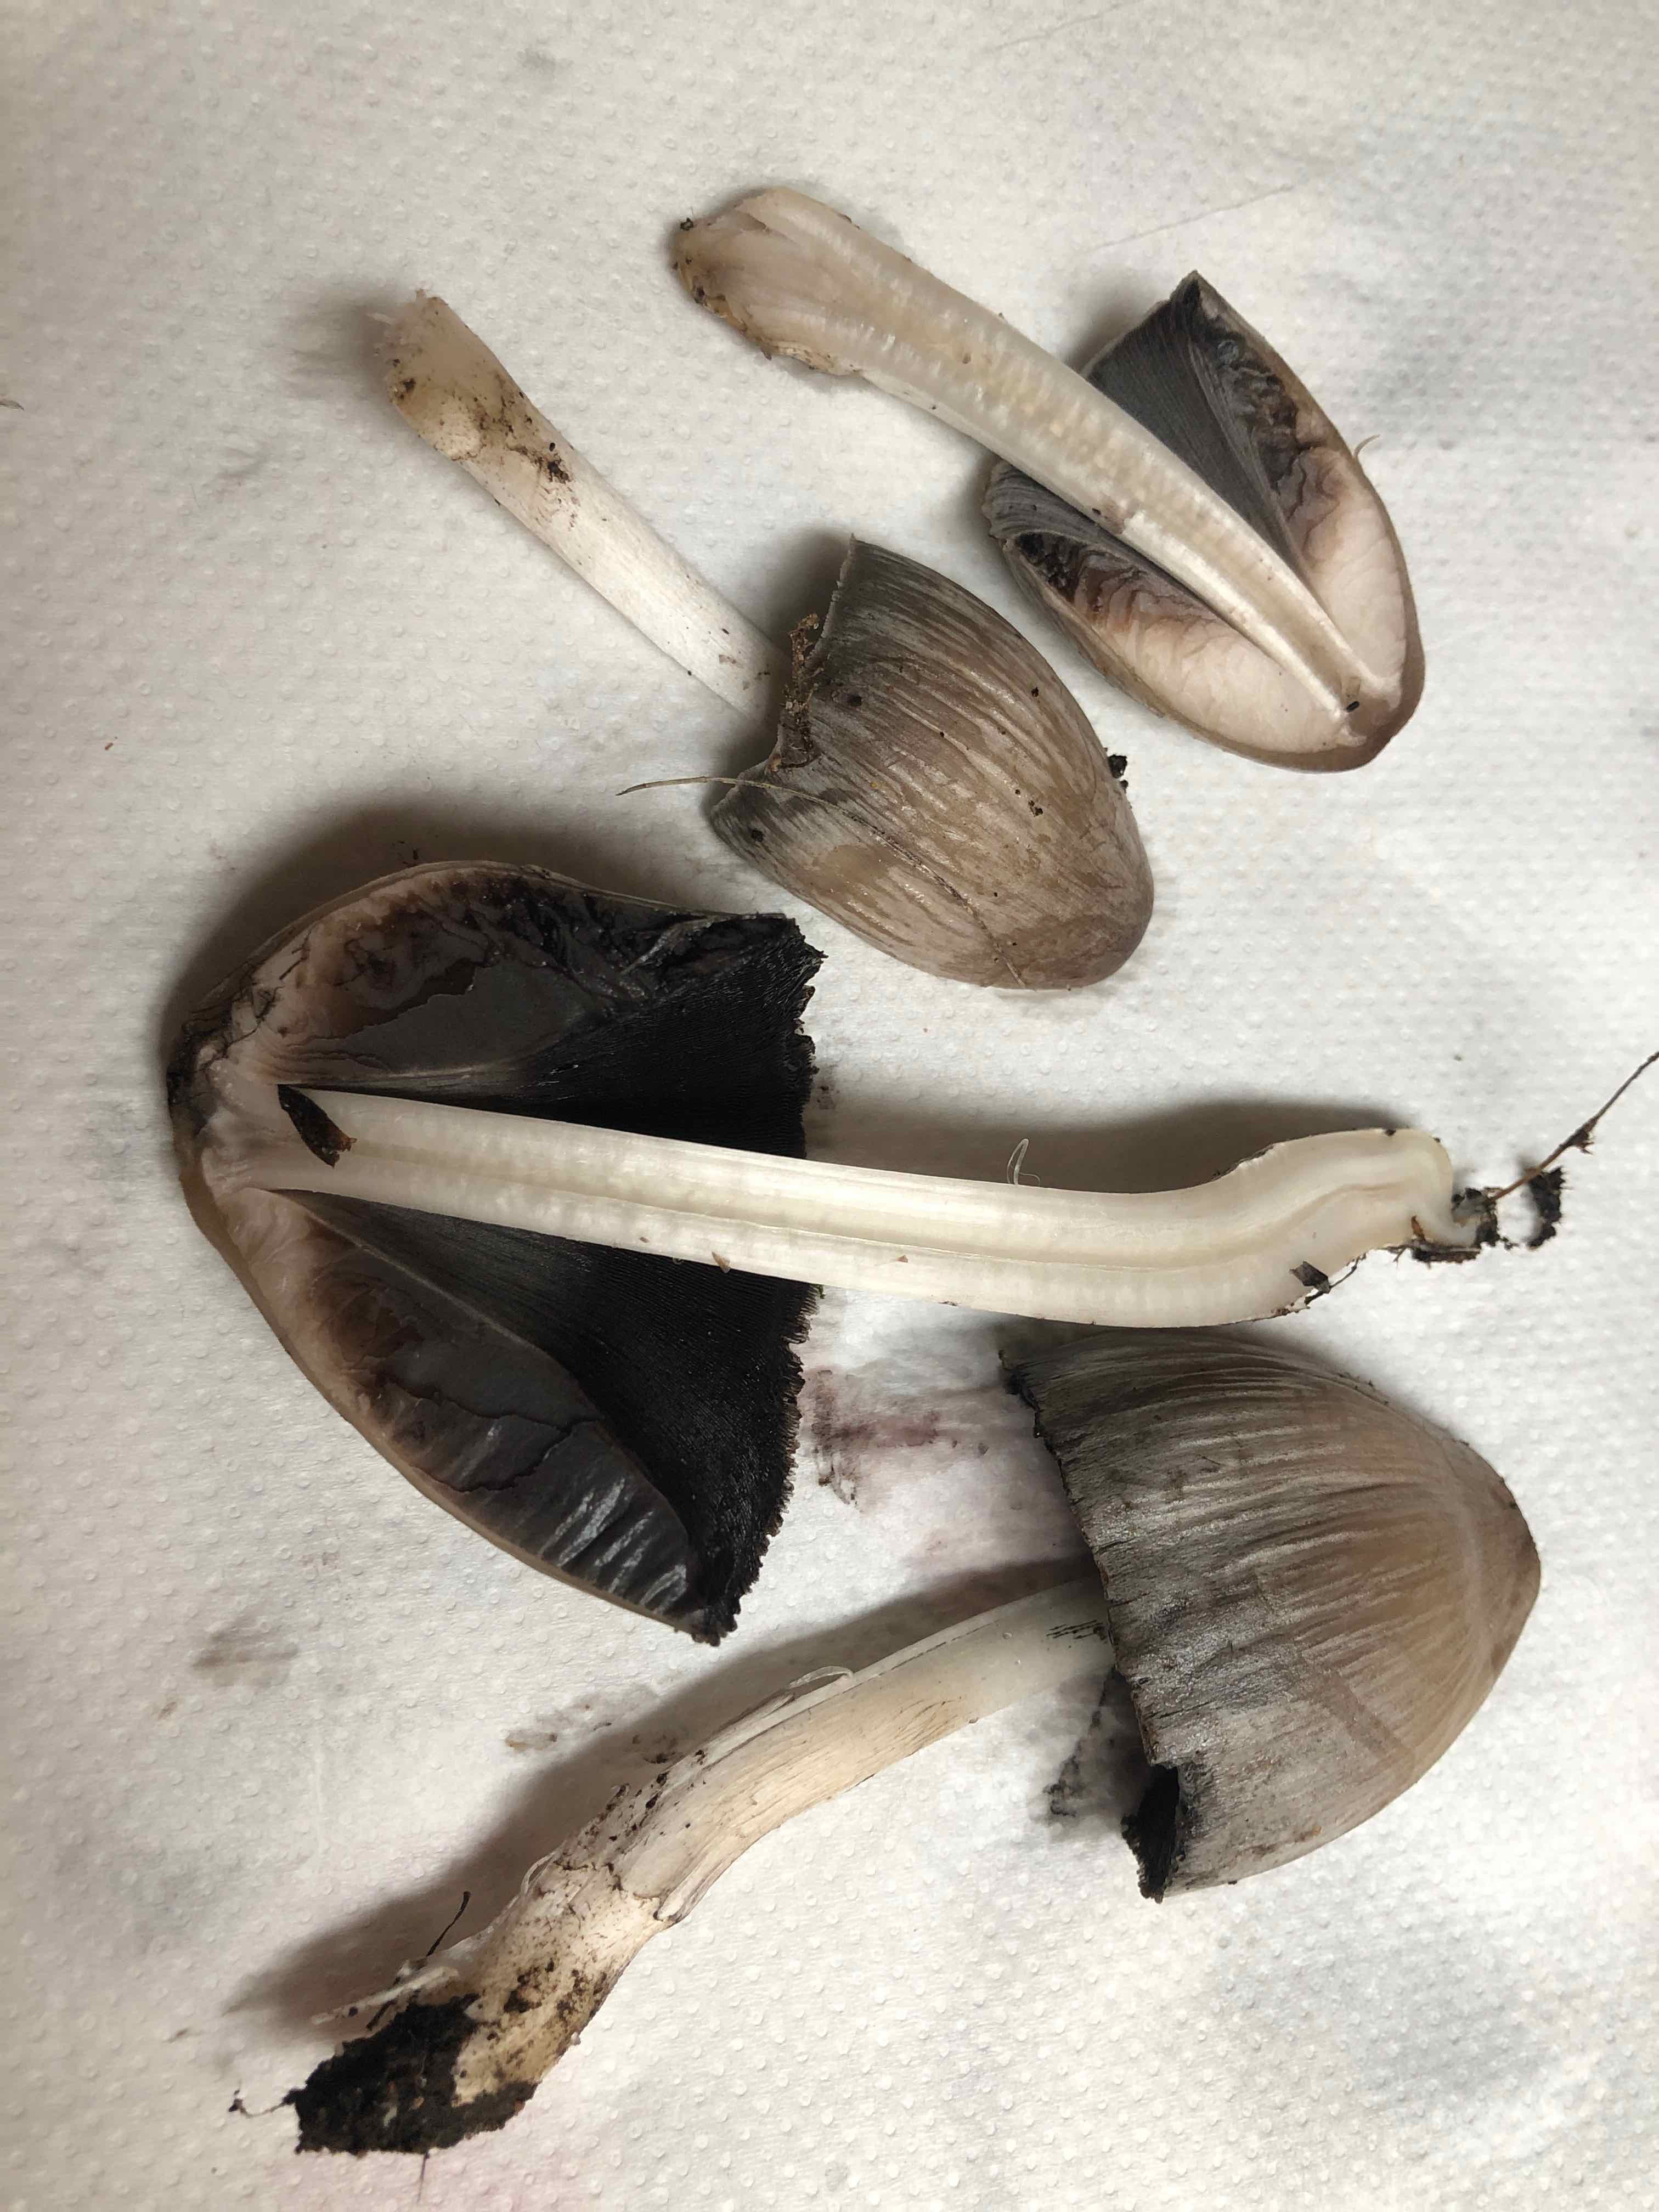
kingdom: Fungi
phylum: Basidiomycota
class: Agaricomycetes
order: Agaricales
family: Psathyrellaceae
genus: Coprinopsis
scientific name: Coprinopsis atramentaria
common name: almindelig blækhat
